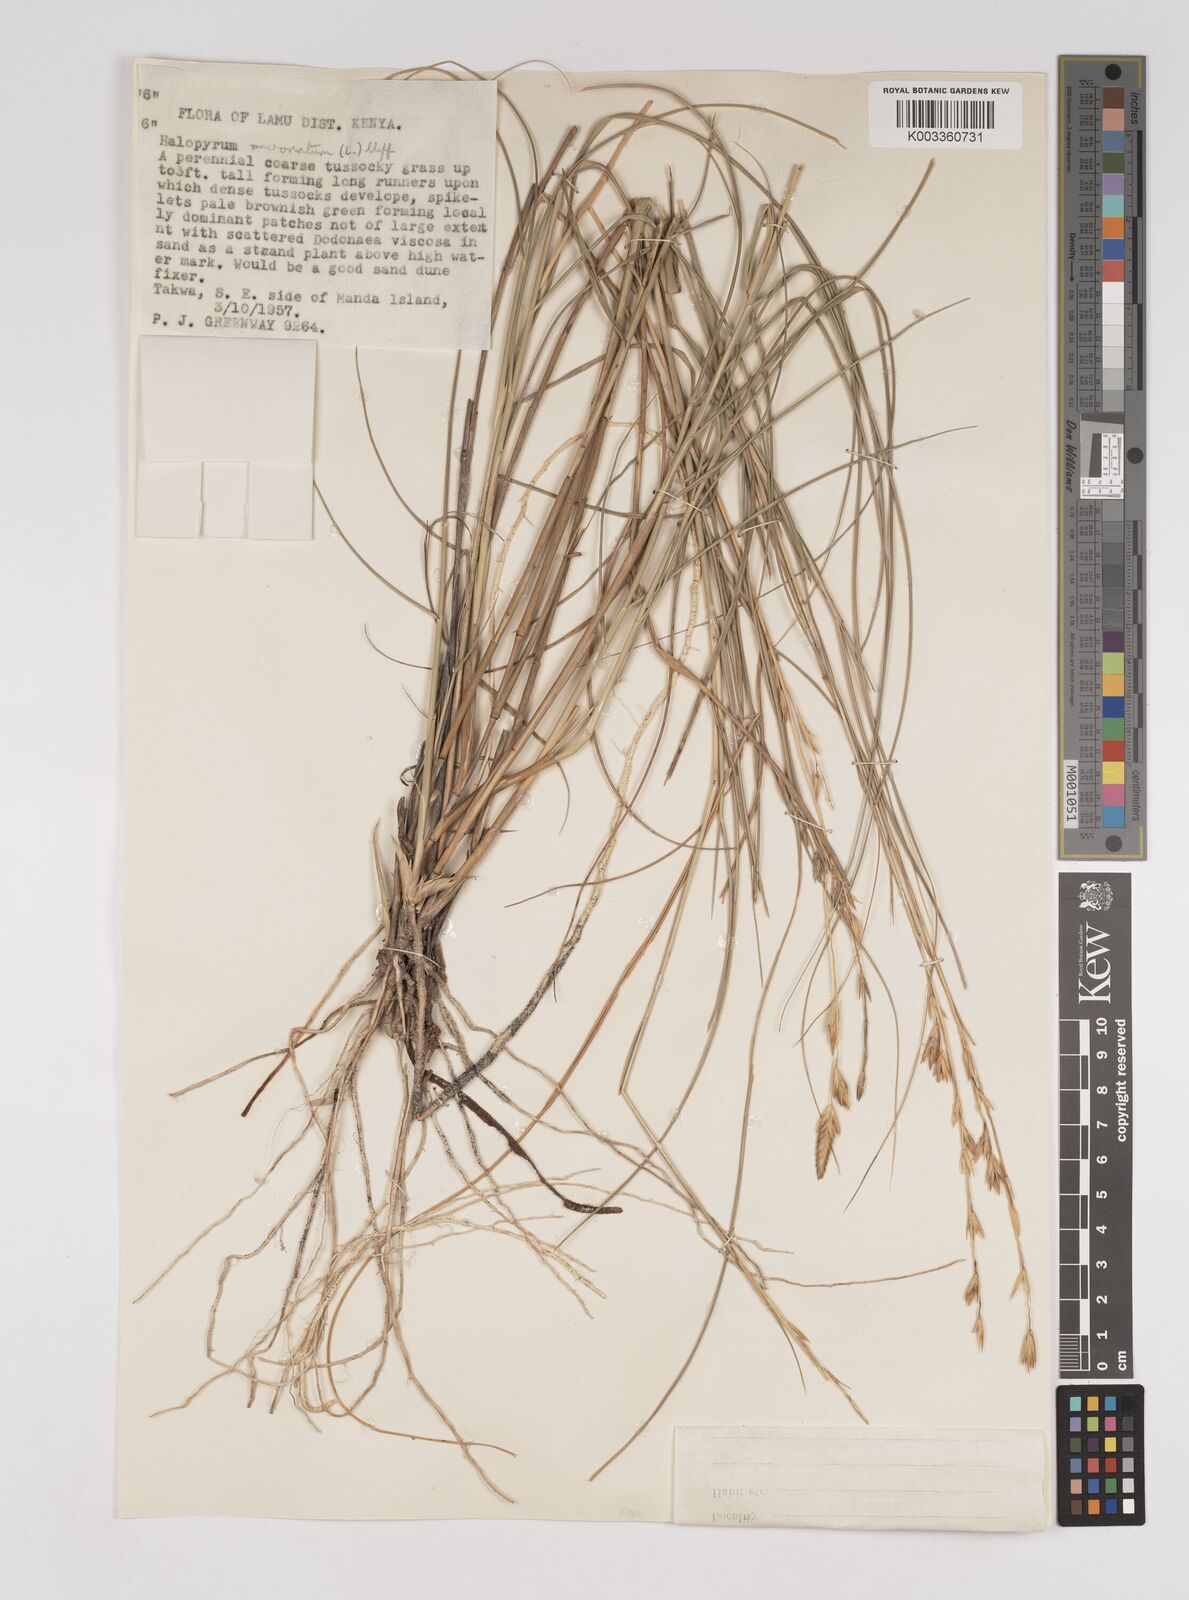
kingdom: Plantae
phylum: Tracheophyta
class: Liliopsida
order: Poales
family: Poaceae
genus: Halopyrum
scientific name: Halopyrum mucronatum
